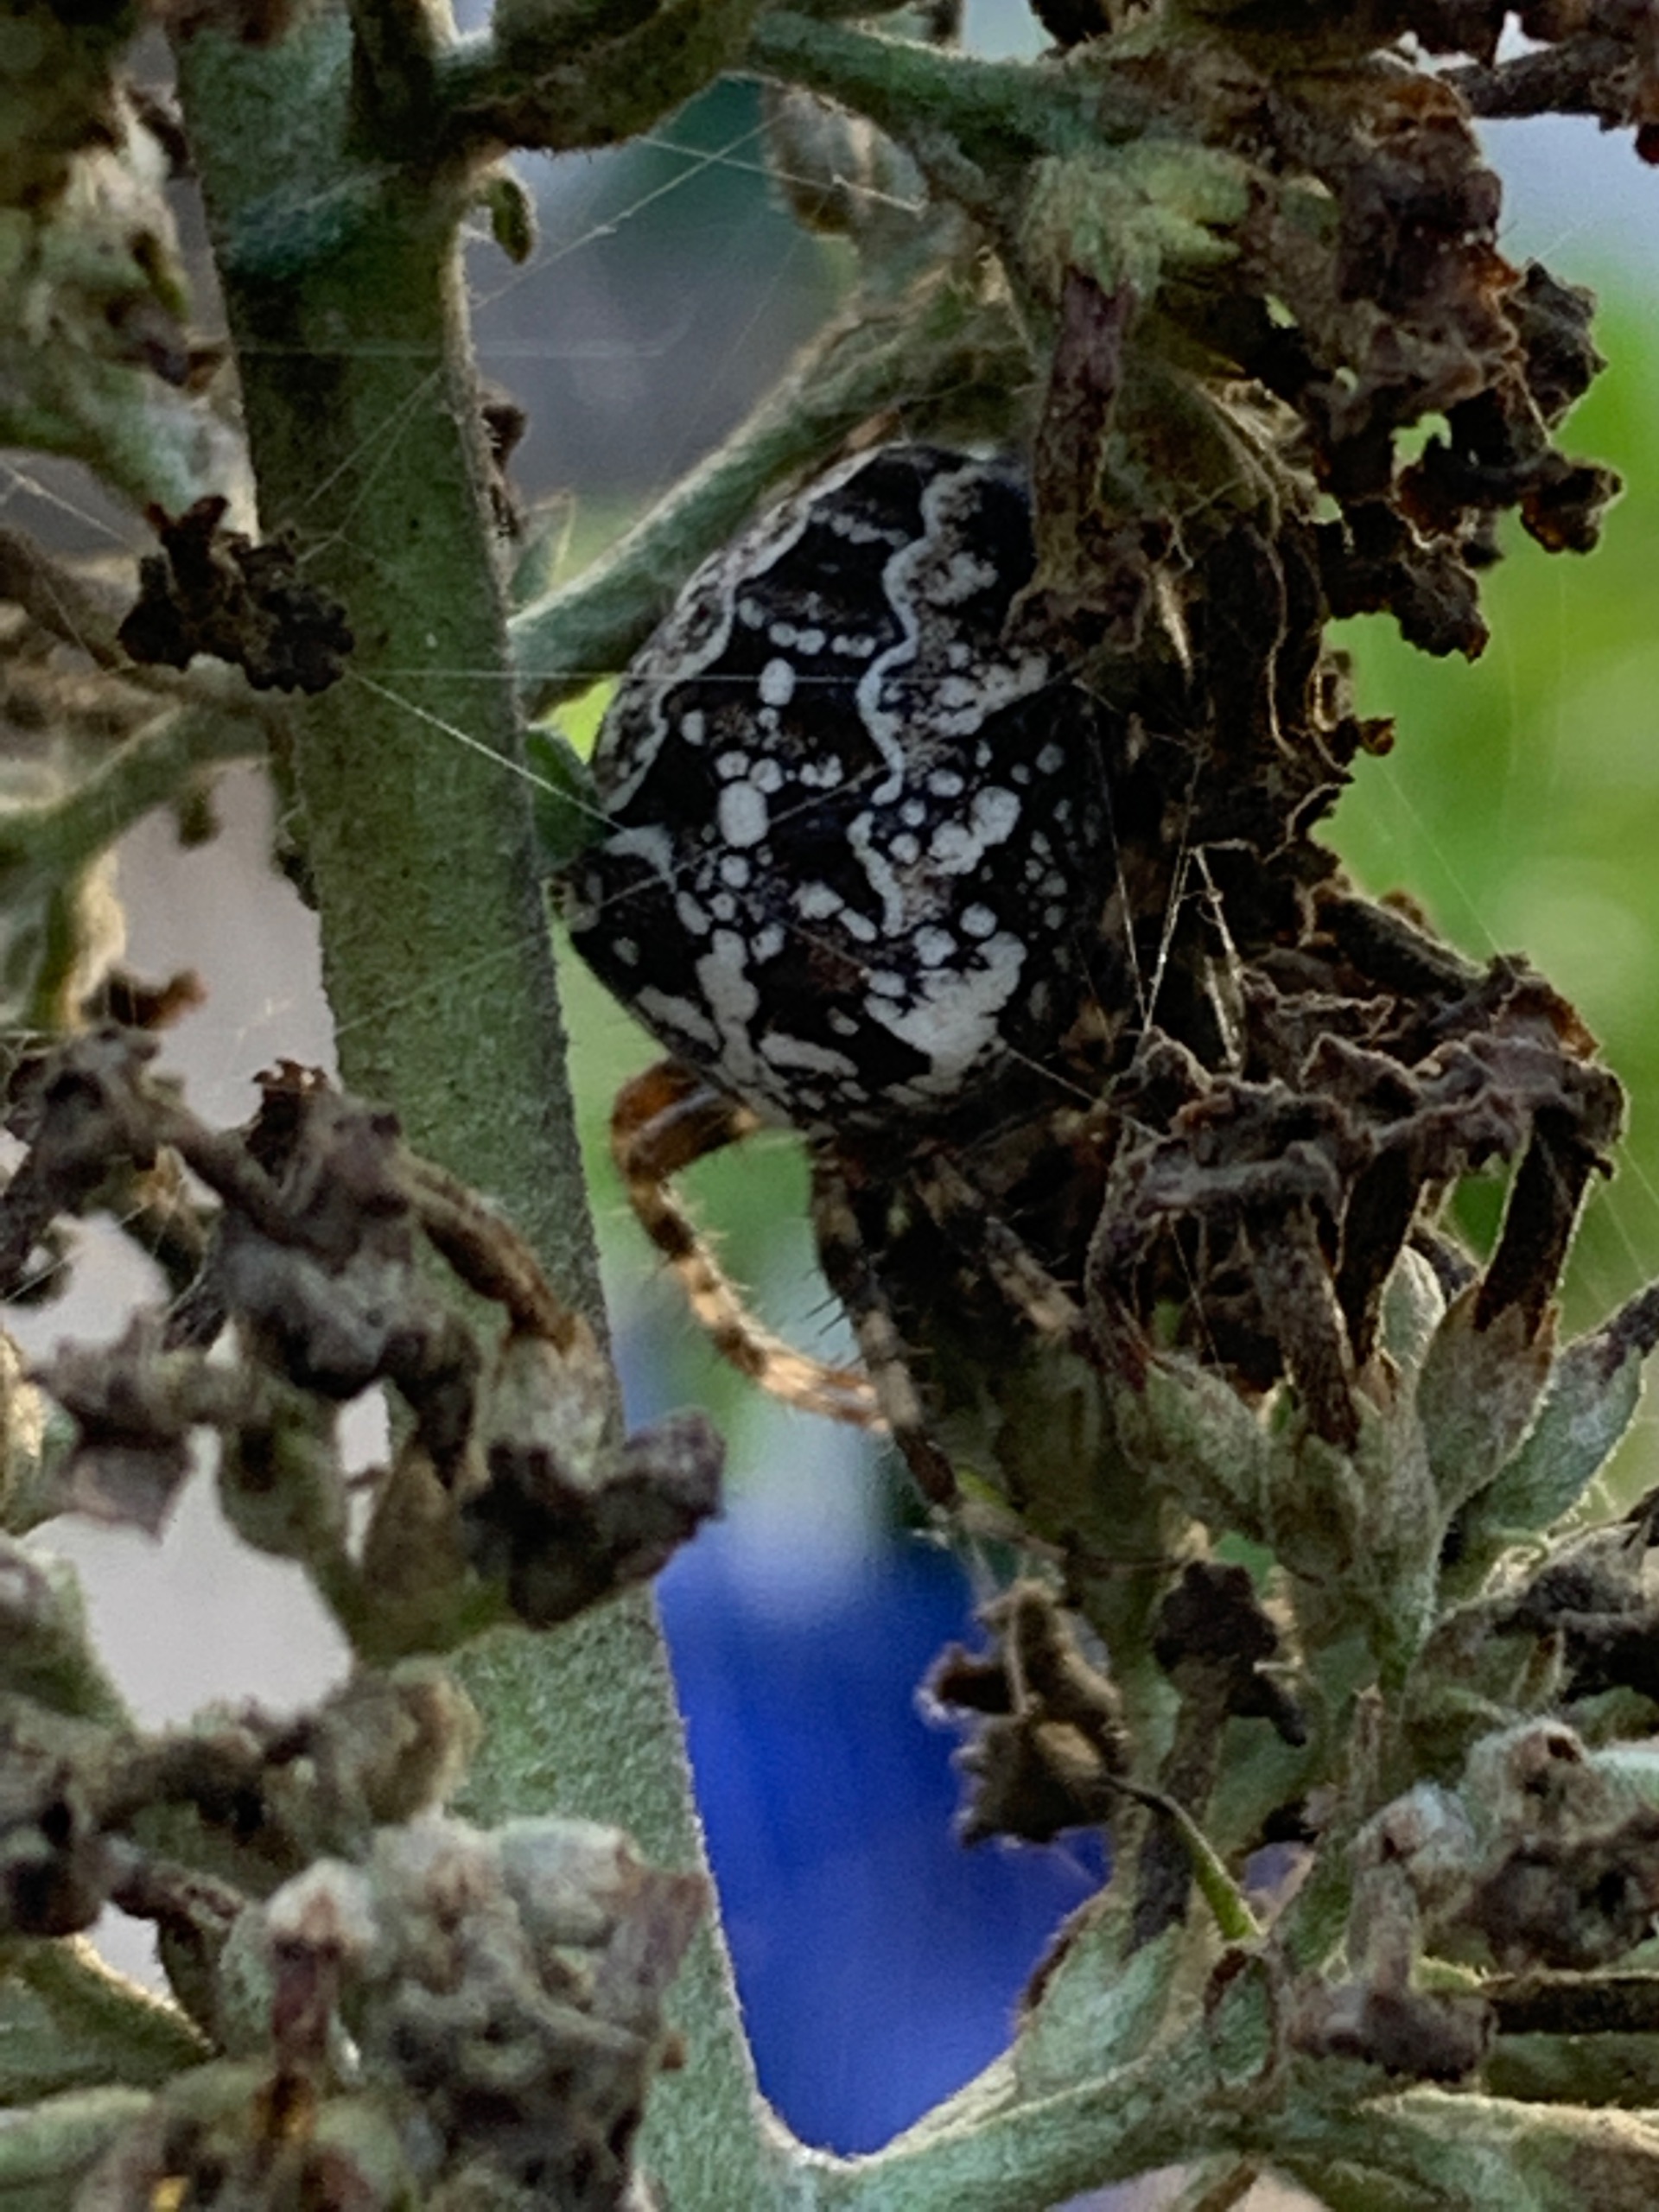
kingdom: Animalia
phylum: Arthropoda
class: Arachnida
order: Araneae
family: Araneidae
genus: Araneus
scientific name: Araneus diadematus
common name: Korsedderkop
